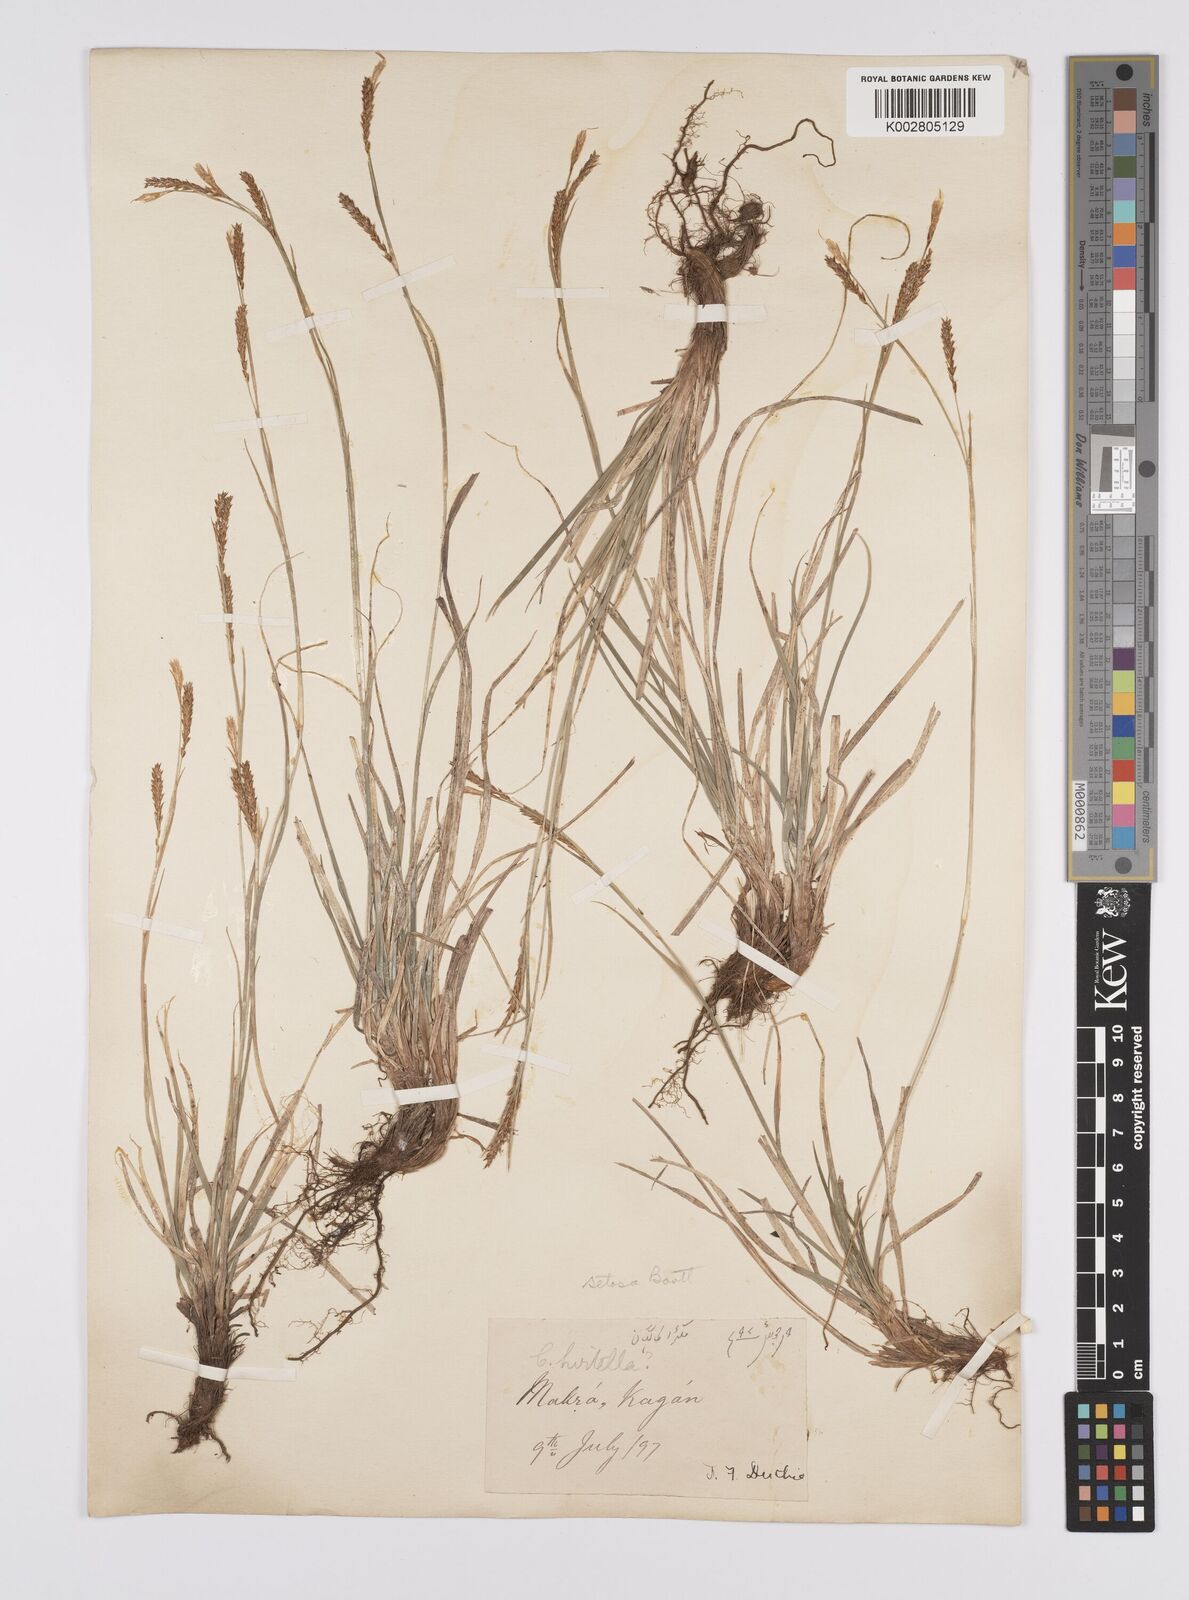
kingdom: Plantae
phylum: Tracheophyta
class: Liliopsida
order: Poales
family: Cyperaceae
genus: Carex
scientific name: Carex setosa
